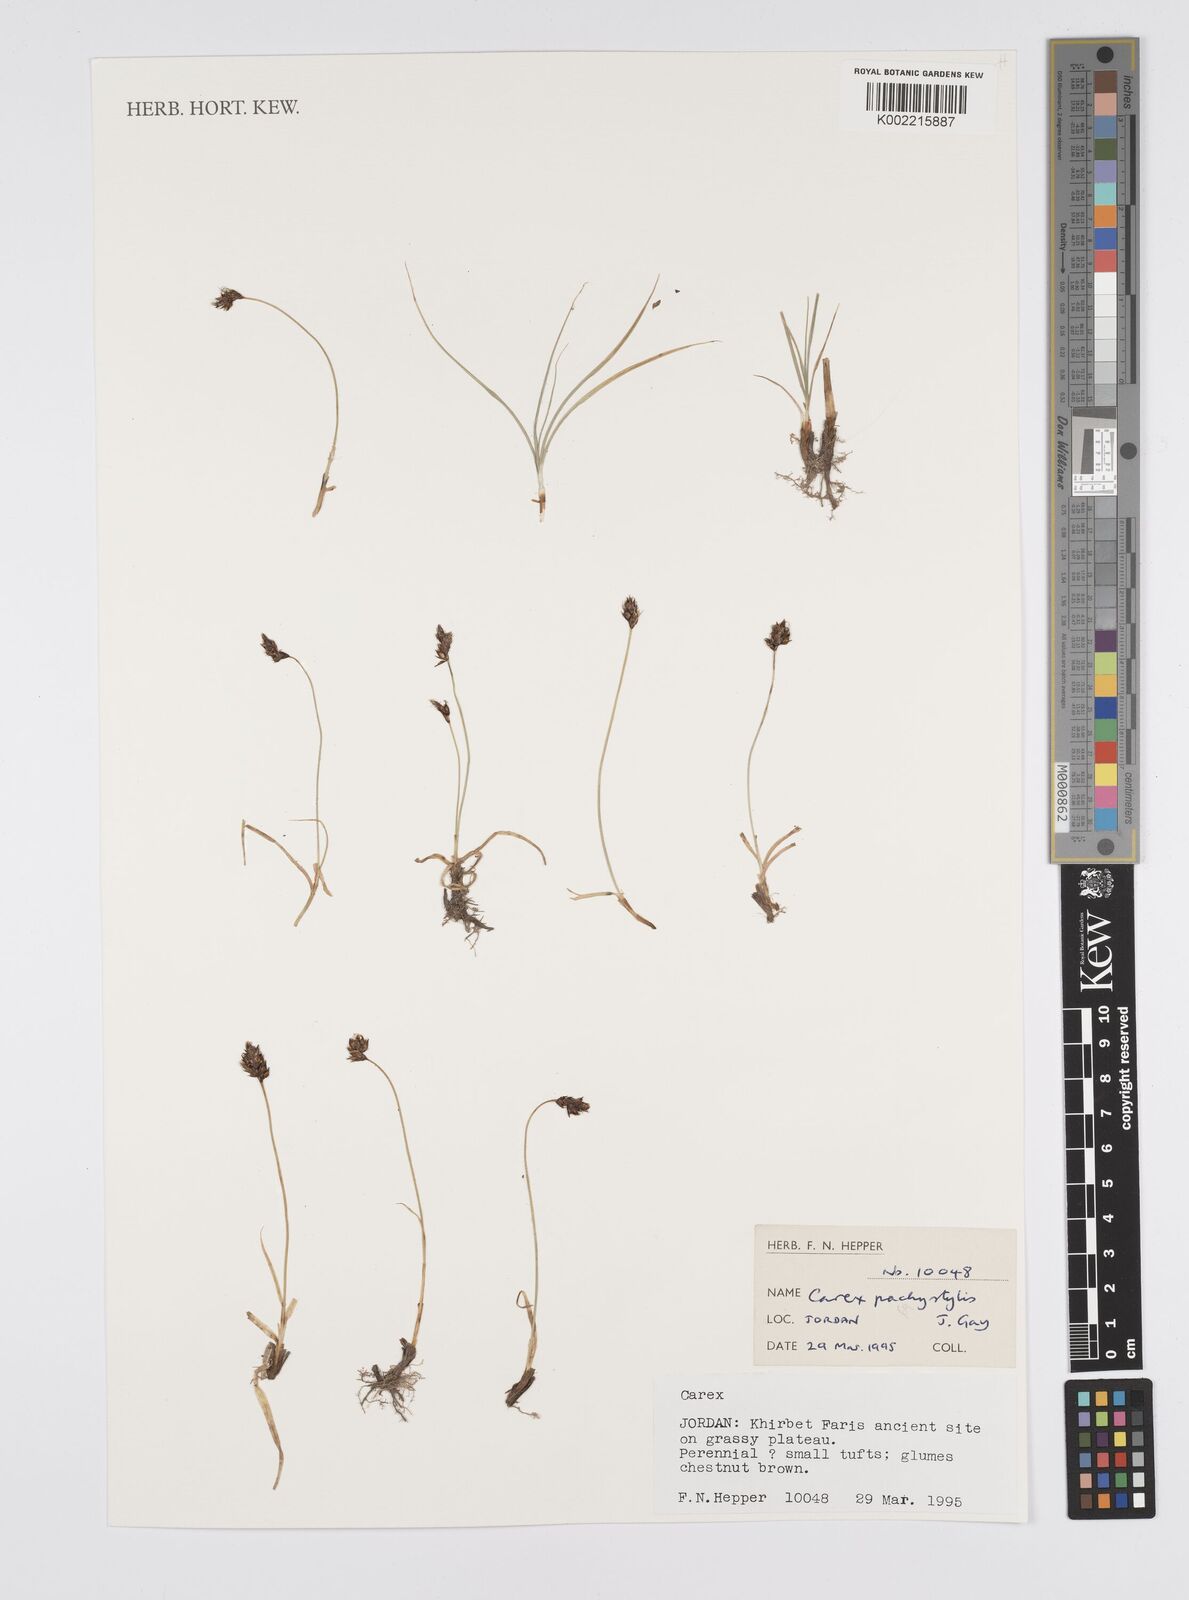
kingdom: Plantae
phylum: Tracheophyta
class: Liliopsida
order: Poales
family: Cyperaceae
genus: Carex
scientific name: Carex stenophylla
